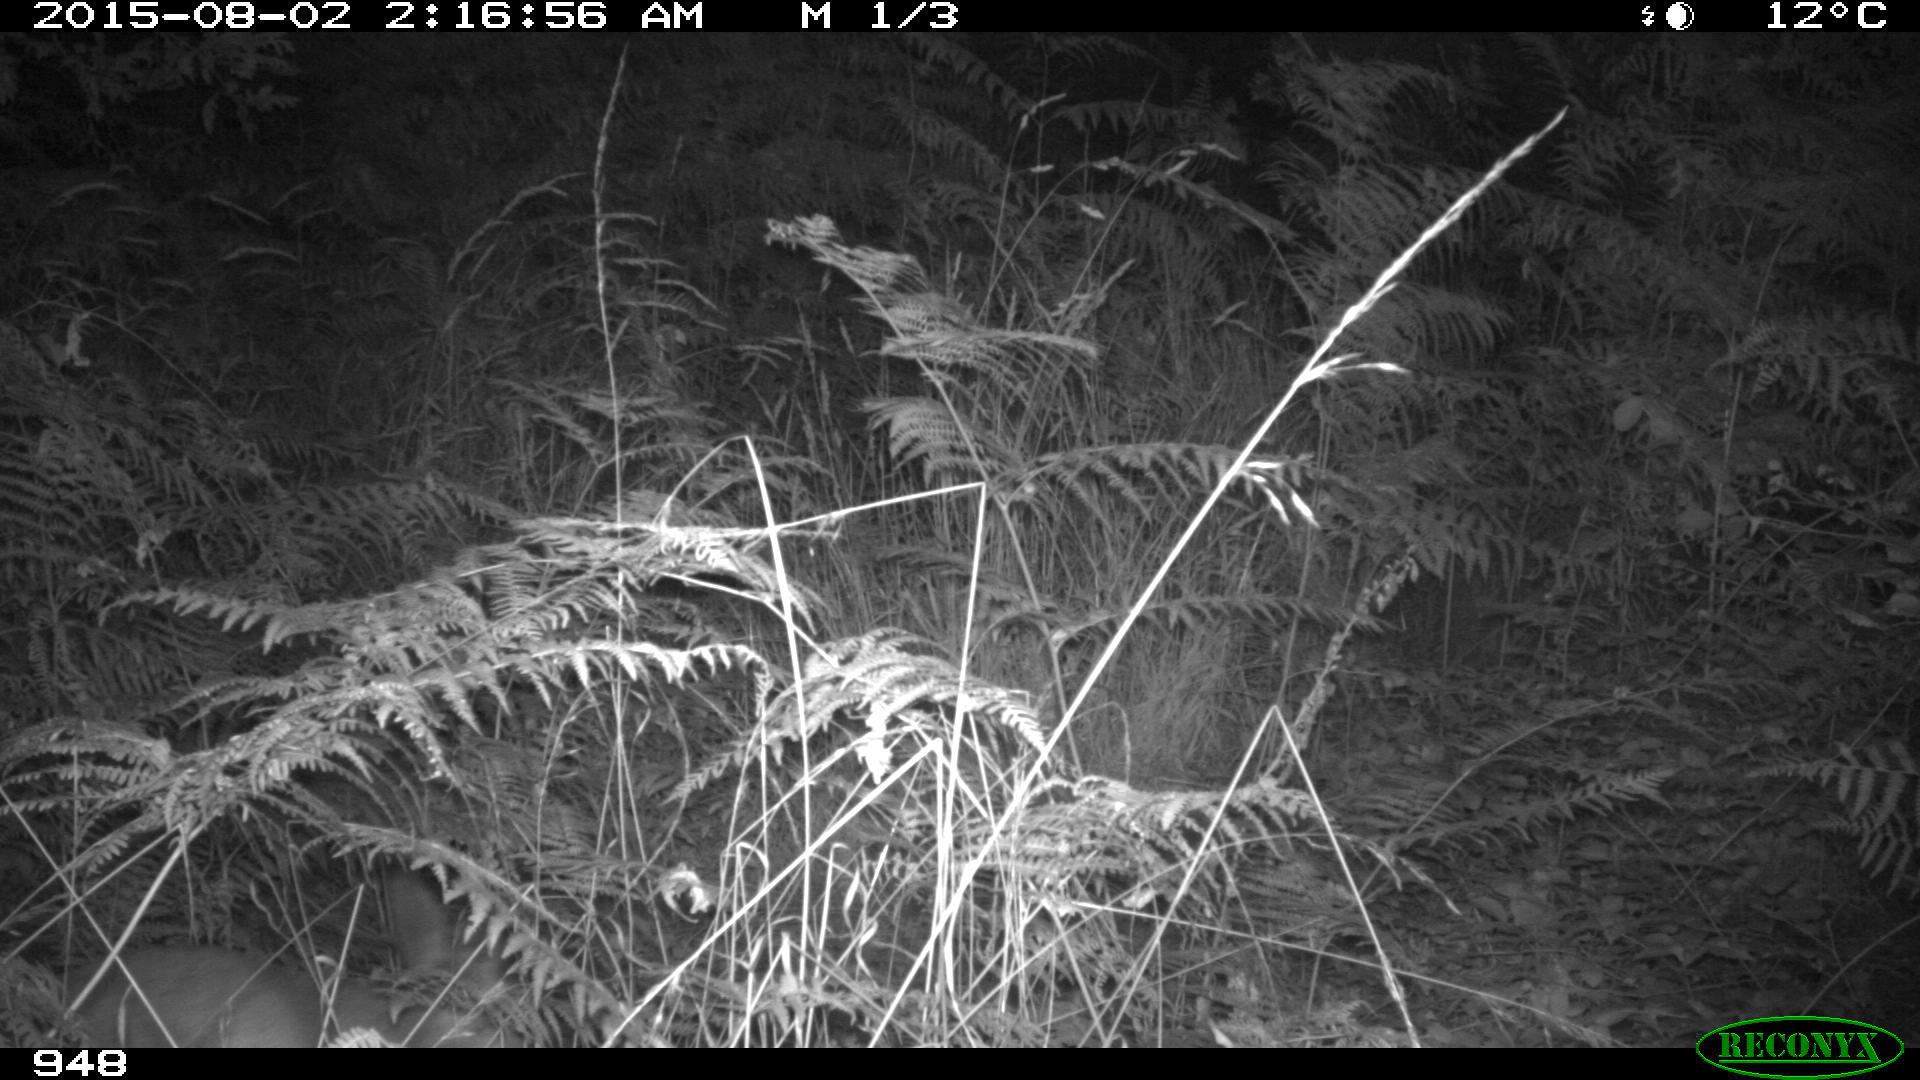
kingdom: Animalia
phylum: Chordata
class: Mammalia
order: Artiodactyla
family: Cervidae
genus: Capreolus
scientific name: Capreolus capreolus
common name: Western roe deer
